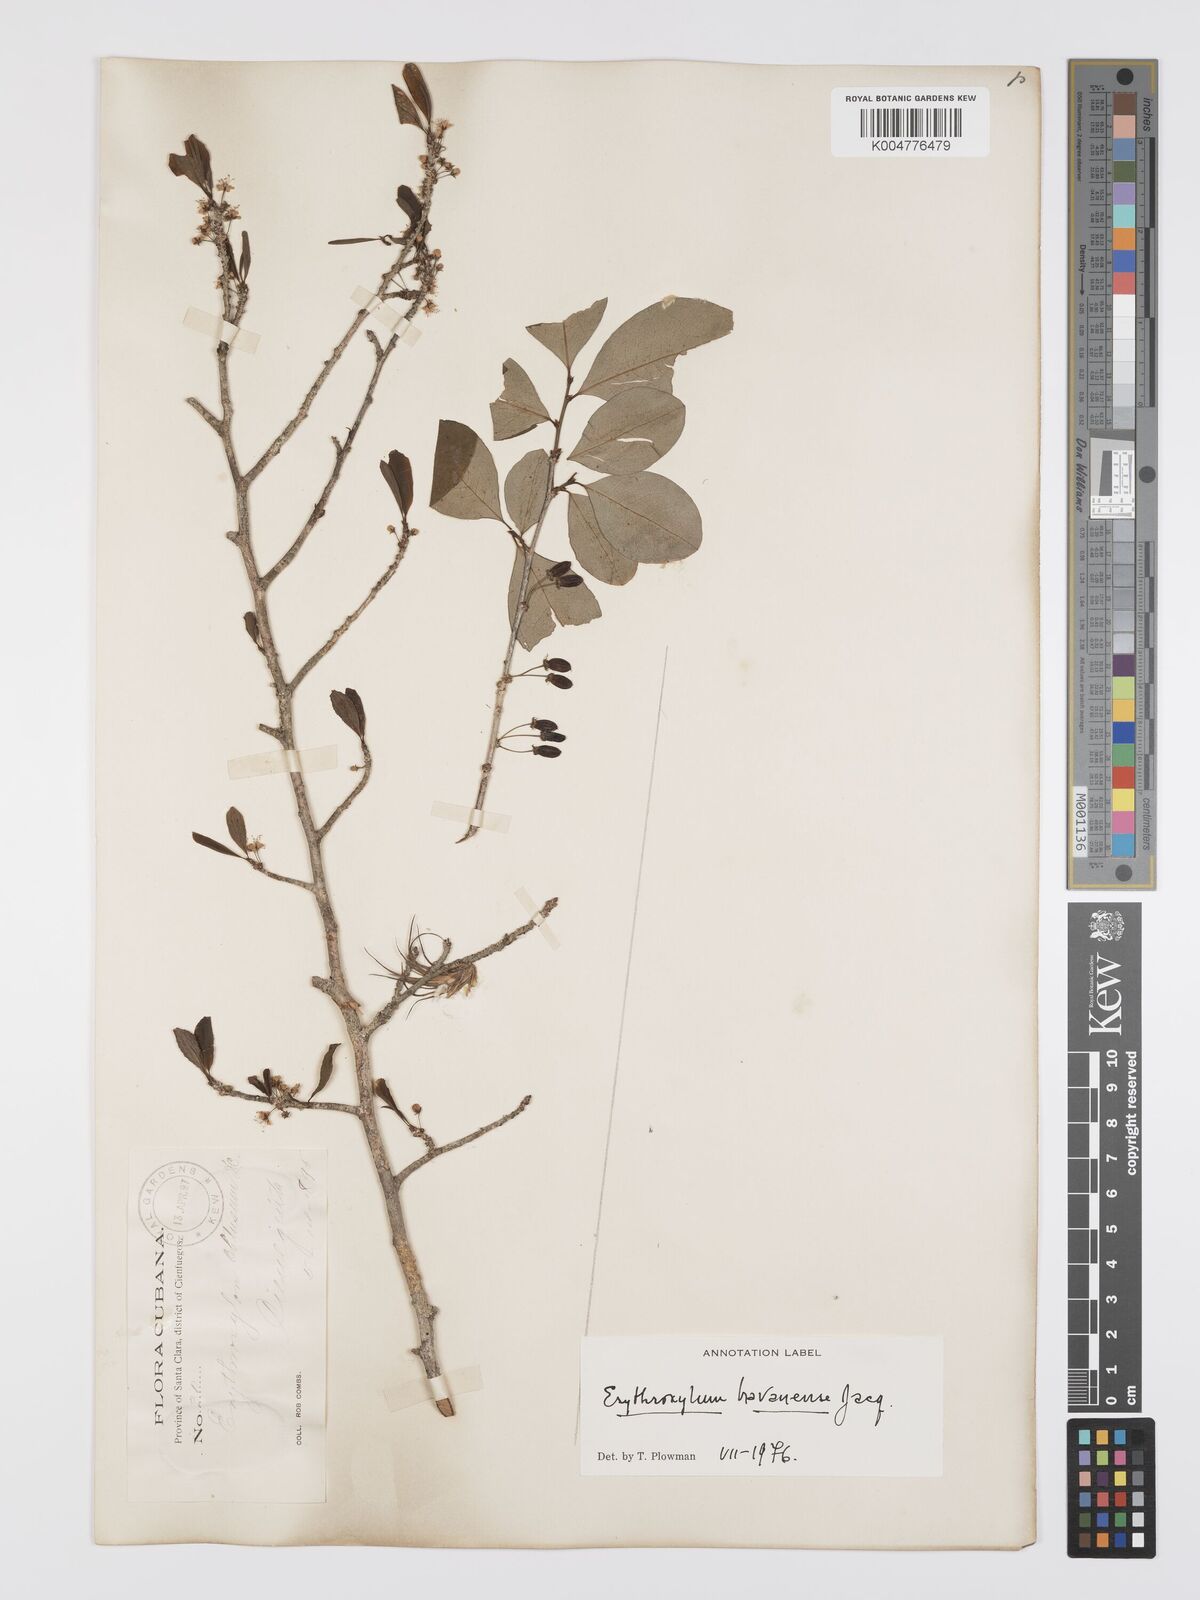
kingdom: Plantae
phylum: Tracheophyta
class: Magnoliopsida
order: Malpighiales
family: Erythroxylaceae
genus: Erythroxylum
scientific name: Erythroxylum
